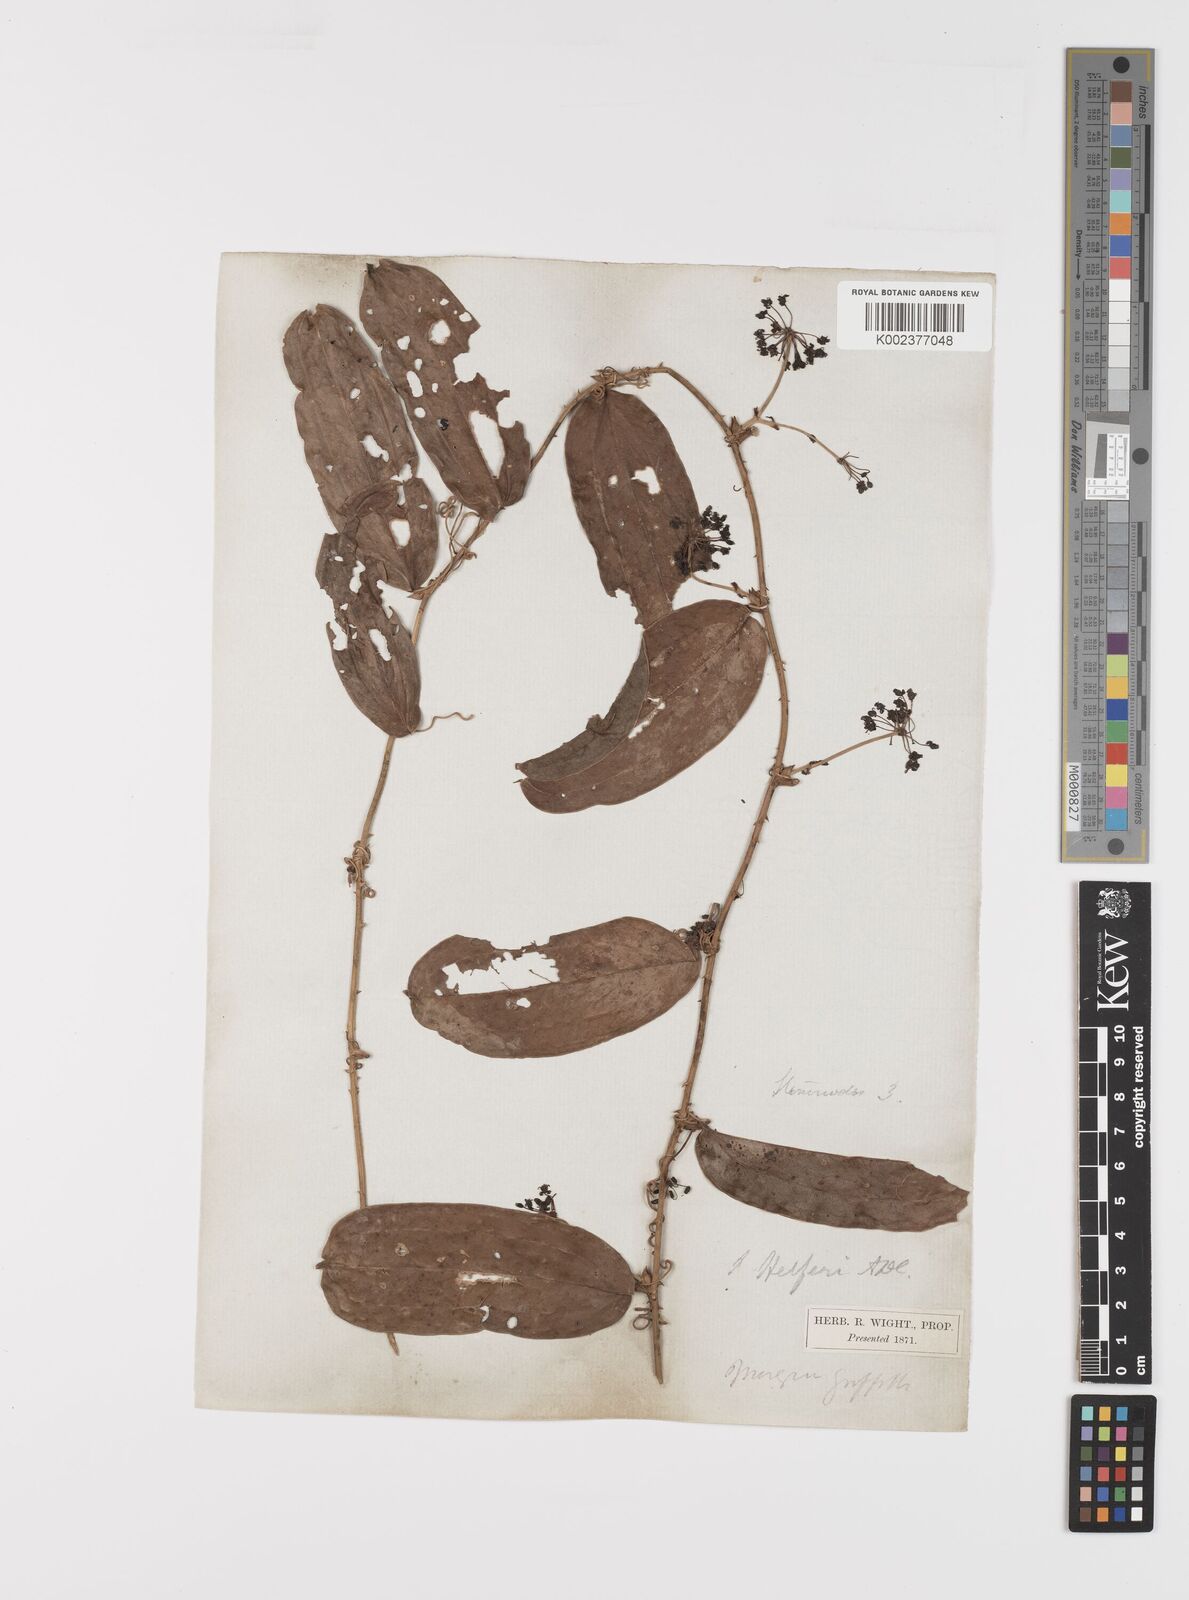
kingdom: Plantae
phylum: Tracheophyta
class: Liliopsida
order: Liliales
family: Smilacaceae
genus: Smilax
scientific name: Smilax luzonensis
